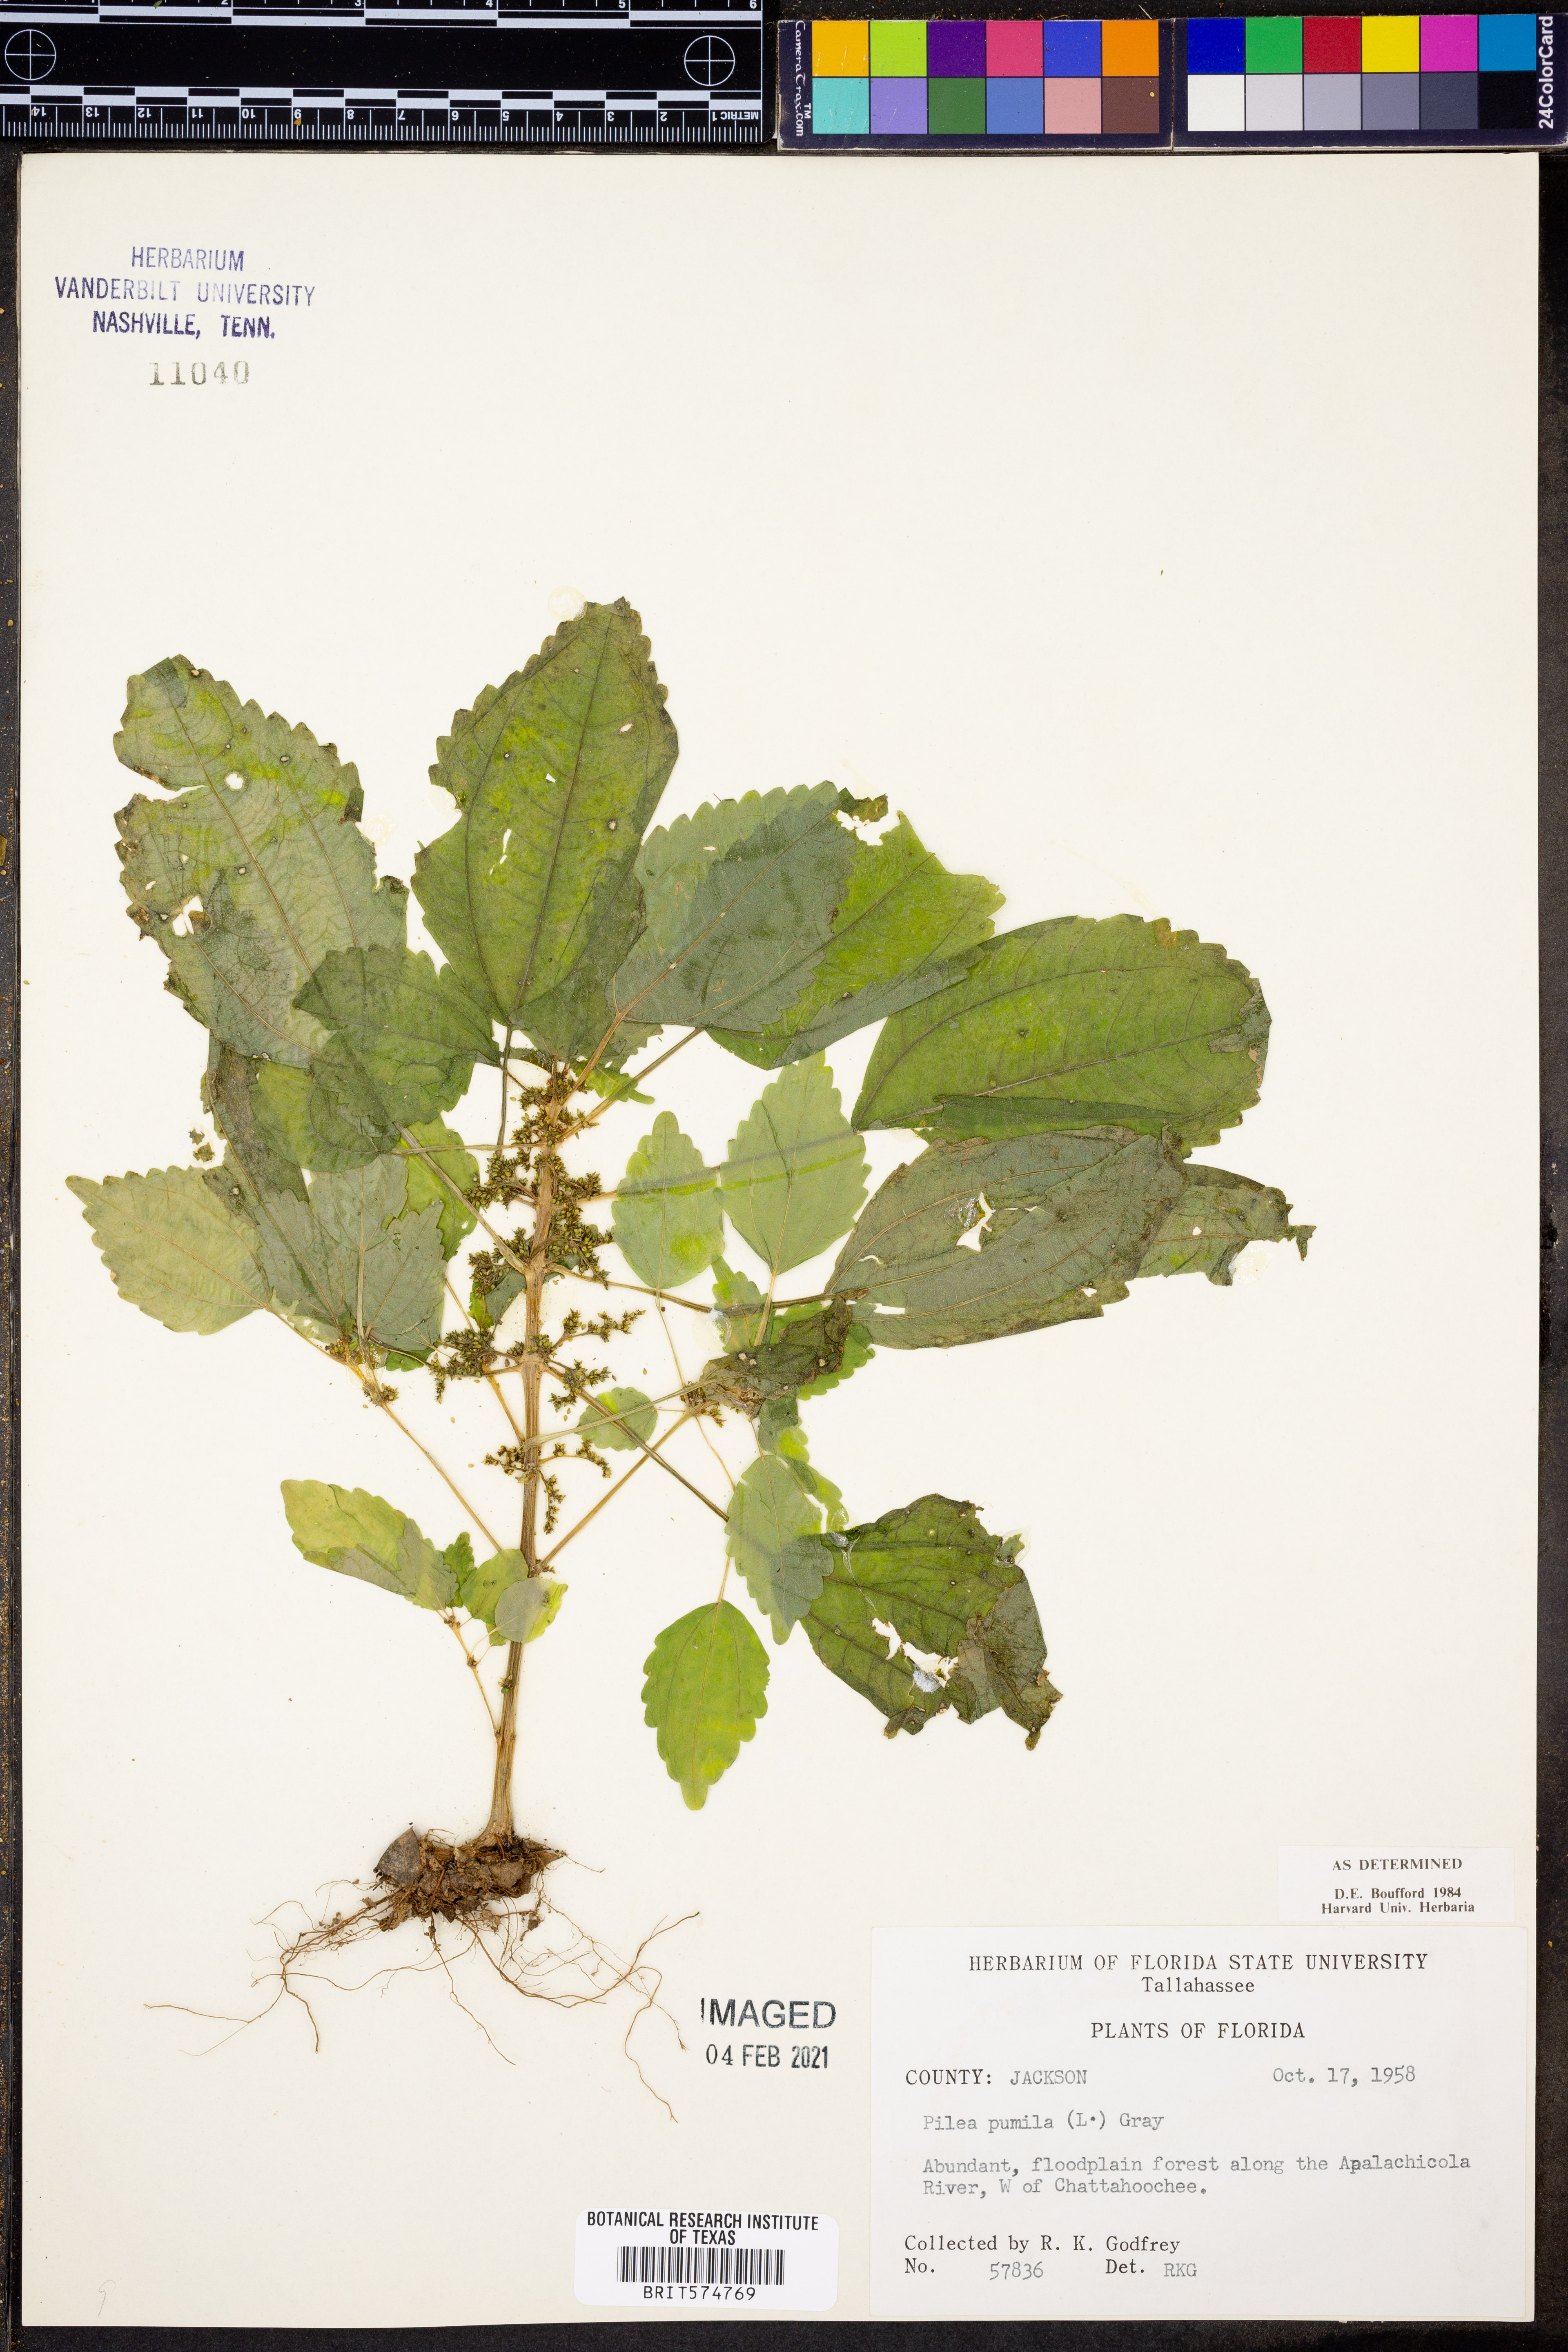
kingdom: Plantae
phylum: Tracheophyta
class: Magnoliopsida
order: Rosales
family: Urticaceae
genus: Pilea
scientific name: Pilea pumila
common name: Clearweed
